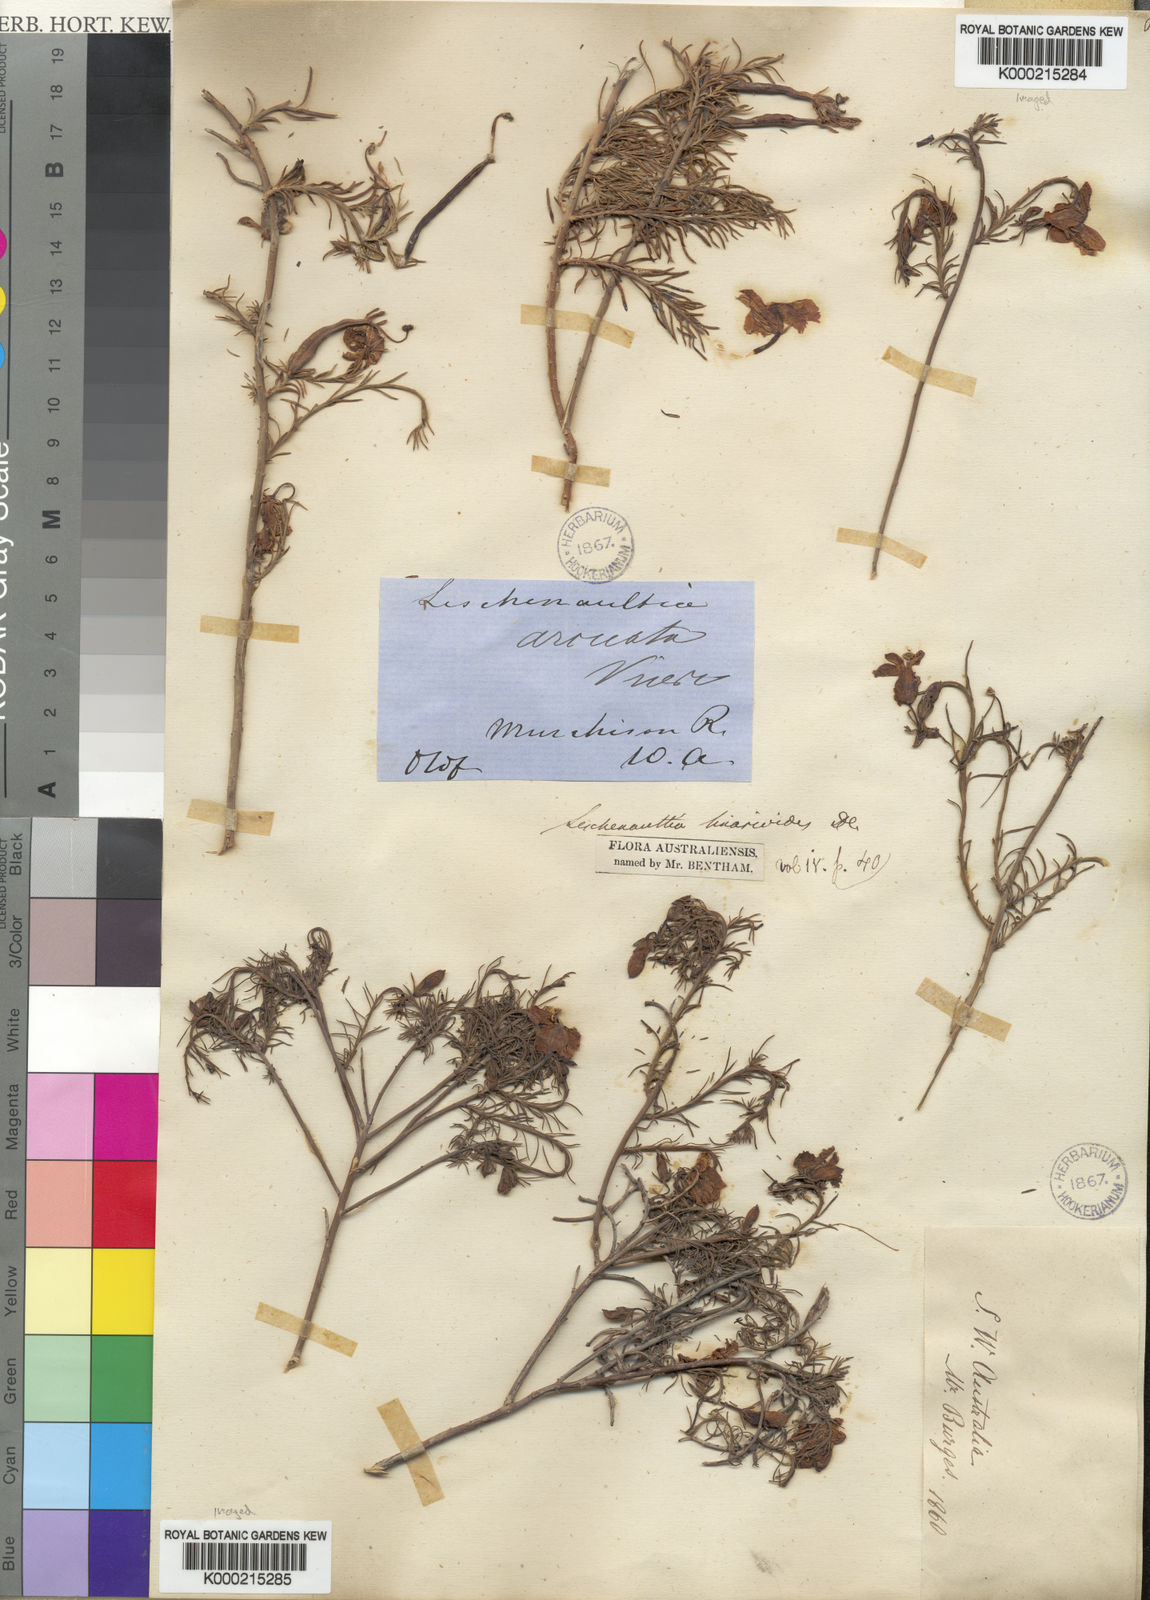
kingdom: Plantae
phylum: Tracheophyta
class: Magnoliopsida
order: Asterales
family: Goodeniaceae
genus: Leschenaultia
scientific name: Leschenaultia
